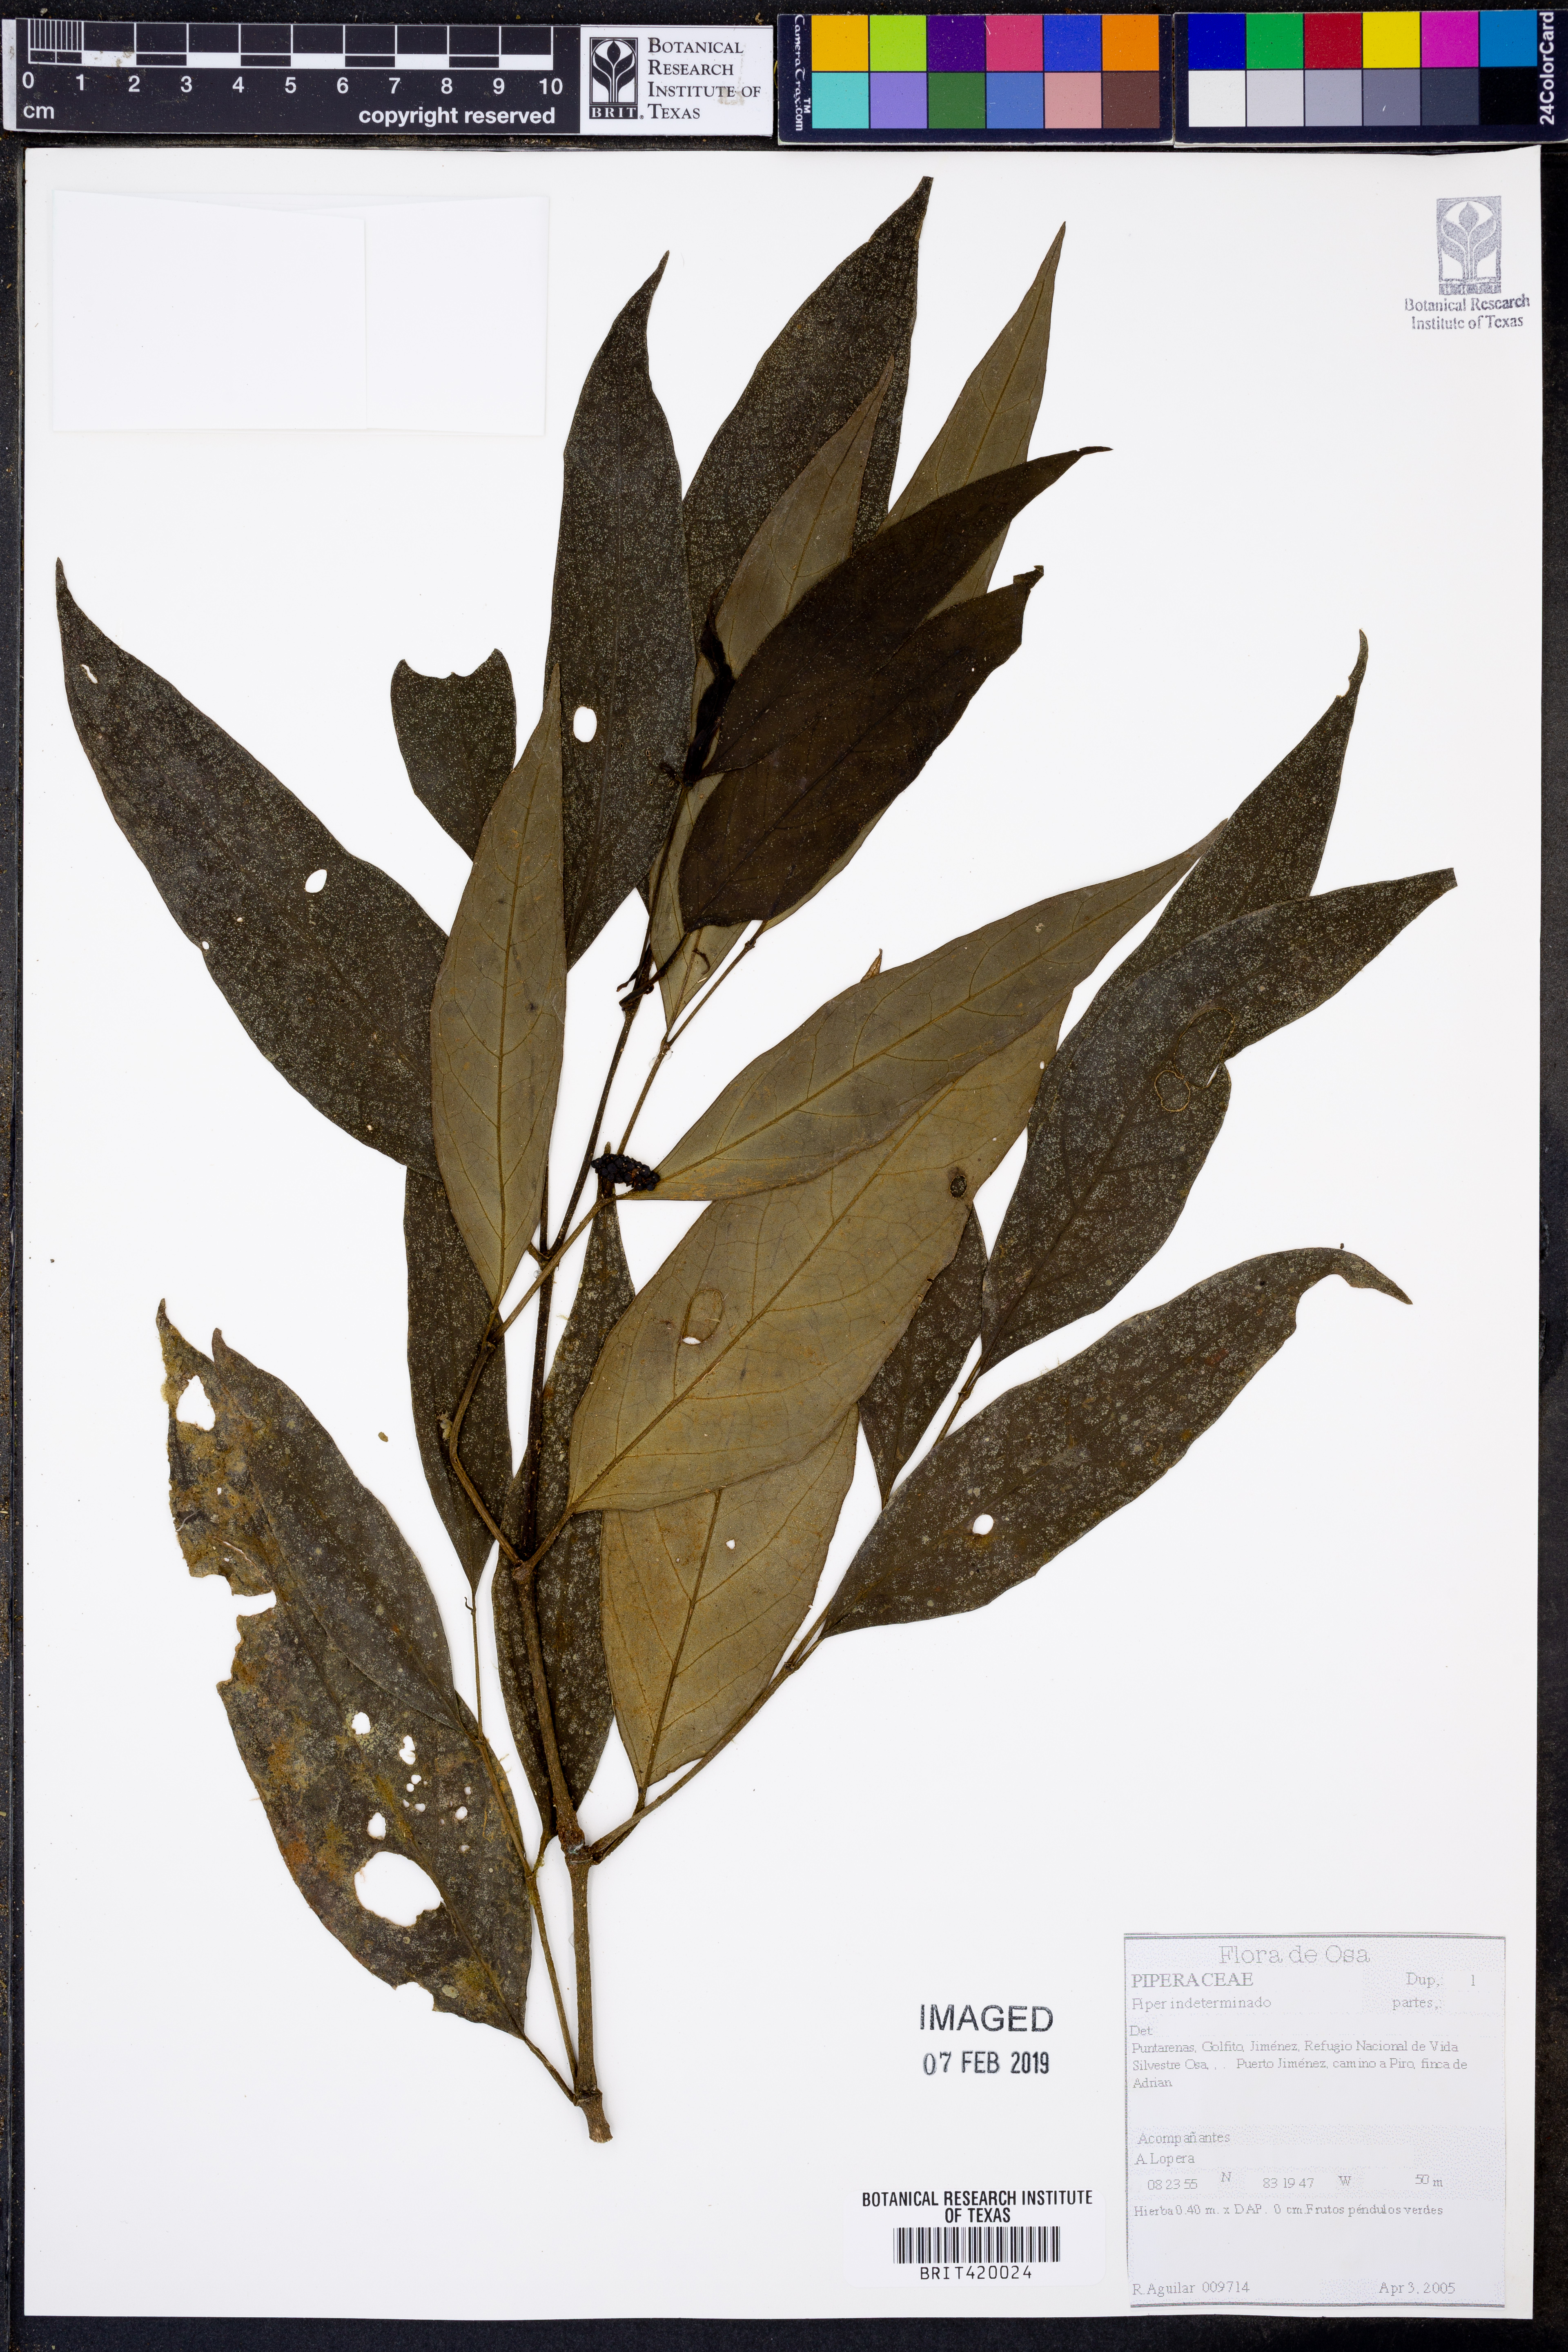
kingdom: Plantae
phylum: Tracheophyta
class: Magnoliopsida
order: Piperales
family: Piperaceae
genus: Piper
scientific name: Piper
